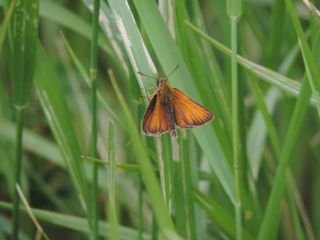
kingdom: Animalia
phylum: Arthropoda
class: Insecta
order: Lepidoptera
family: Hesperiidae
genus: Thymelicus
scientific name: Thymelicus lineola
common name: European Skipper
